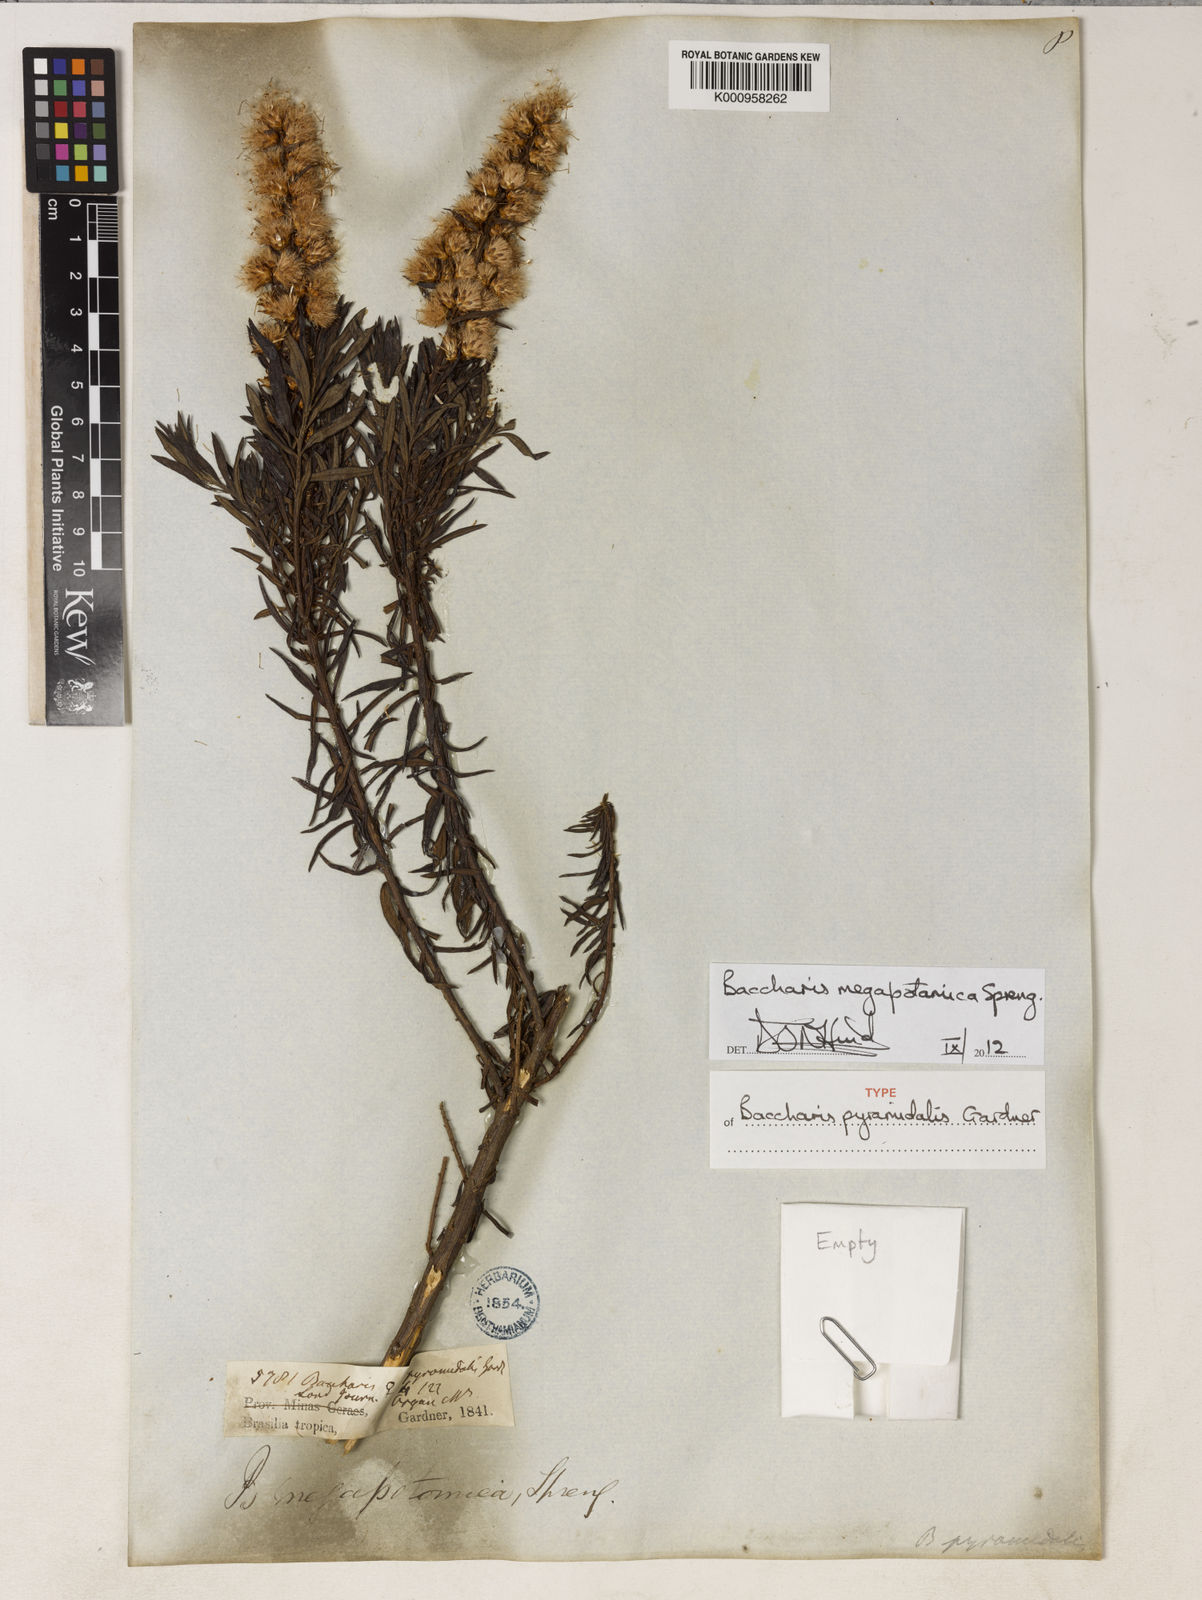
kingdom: Plantae
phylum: Tracheophyta
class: Magnoliopsida
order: Asterales
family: Asteraceae
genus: Baccharis
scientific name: Baccharis megapotamica
